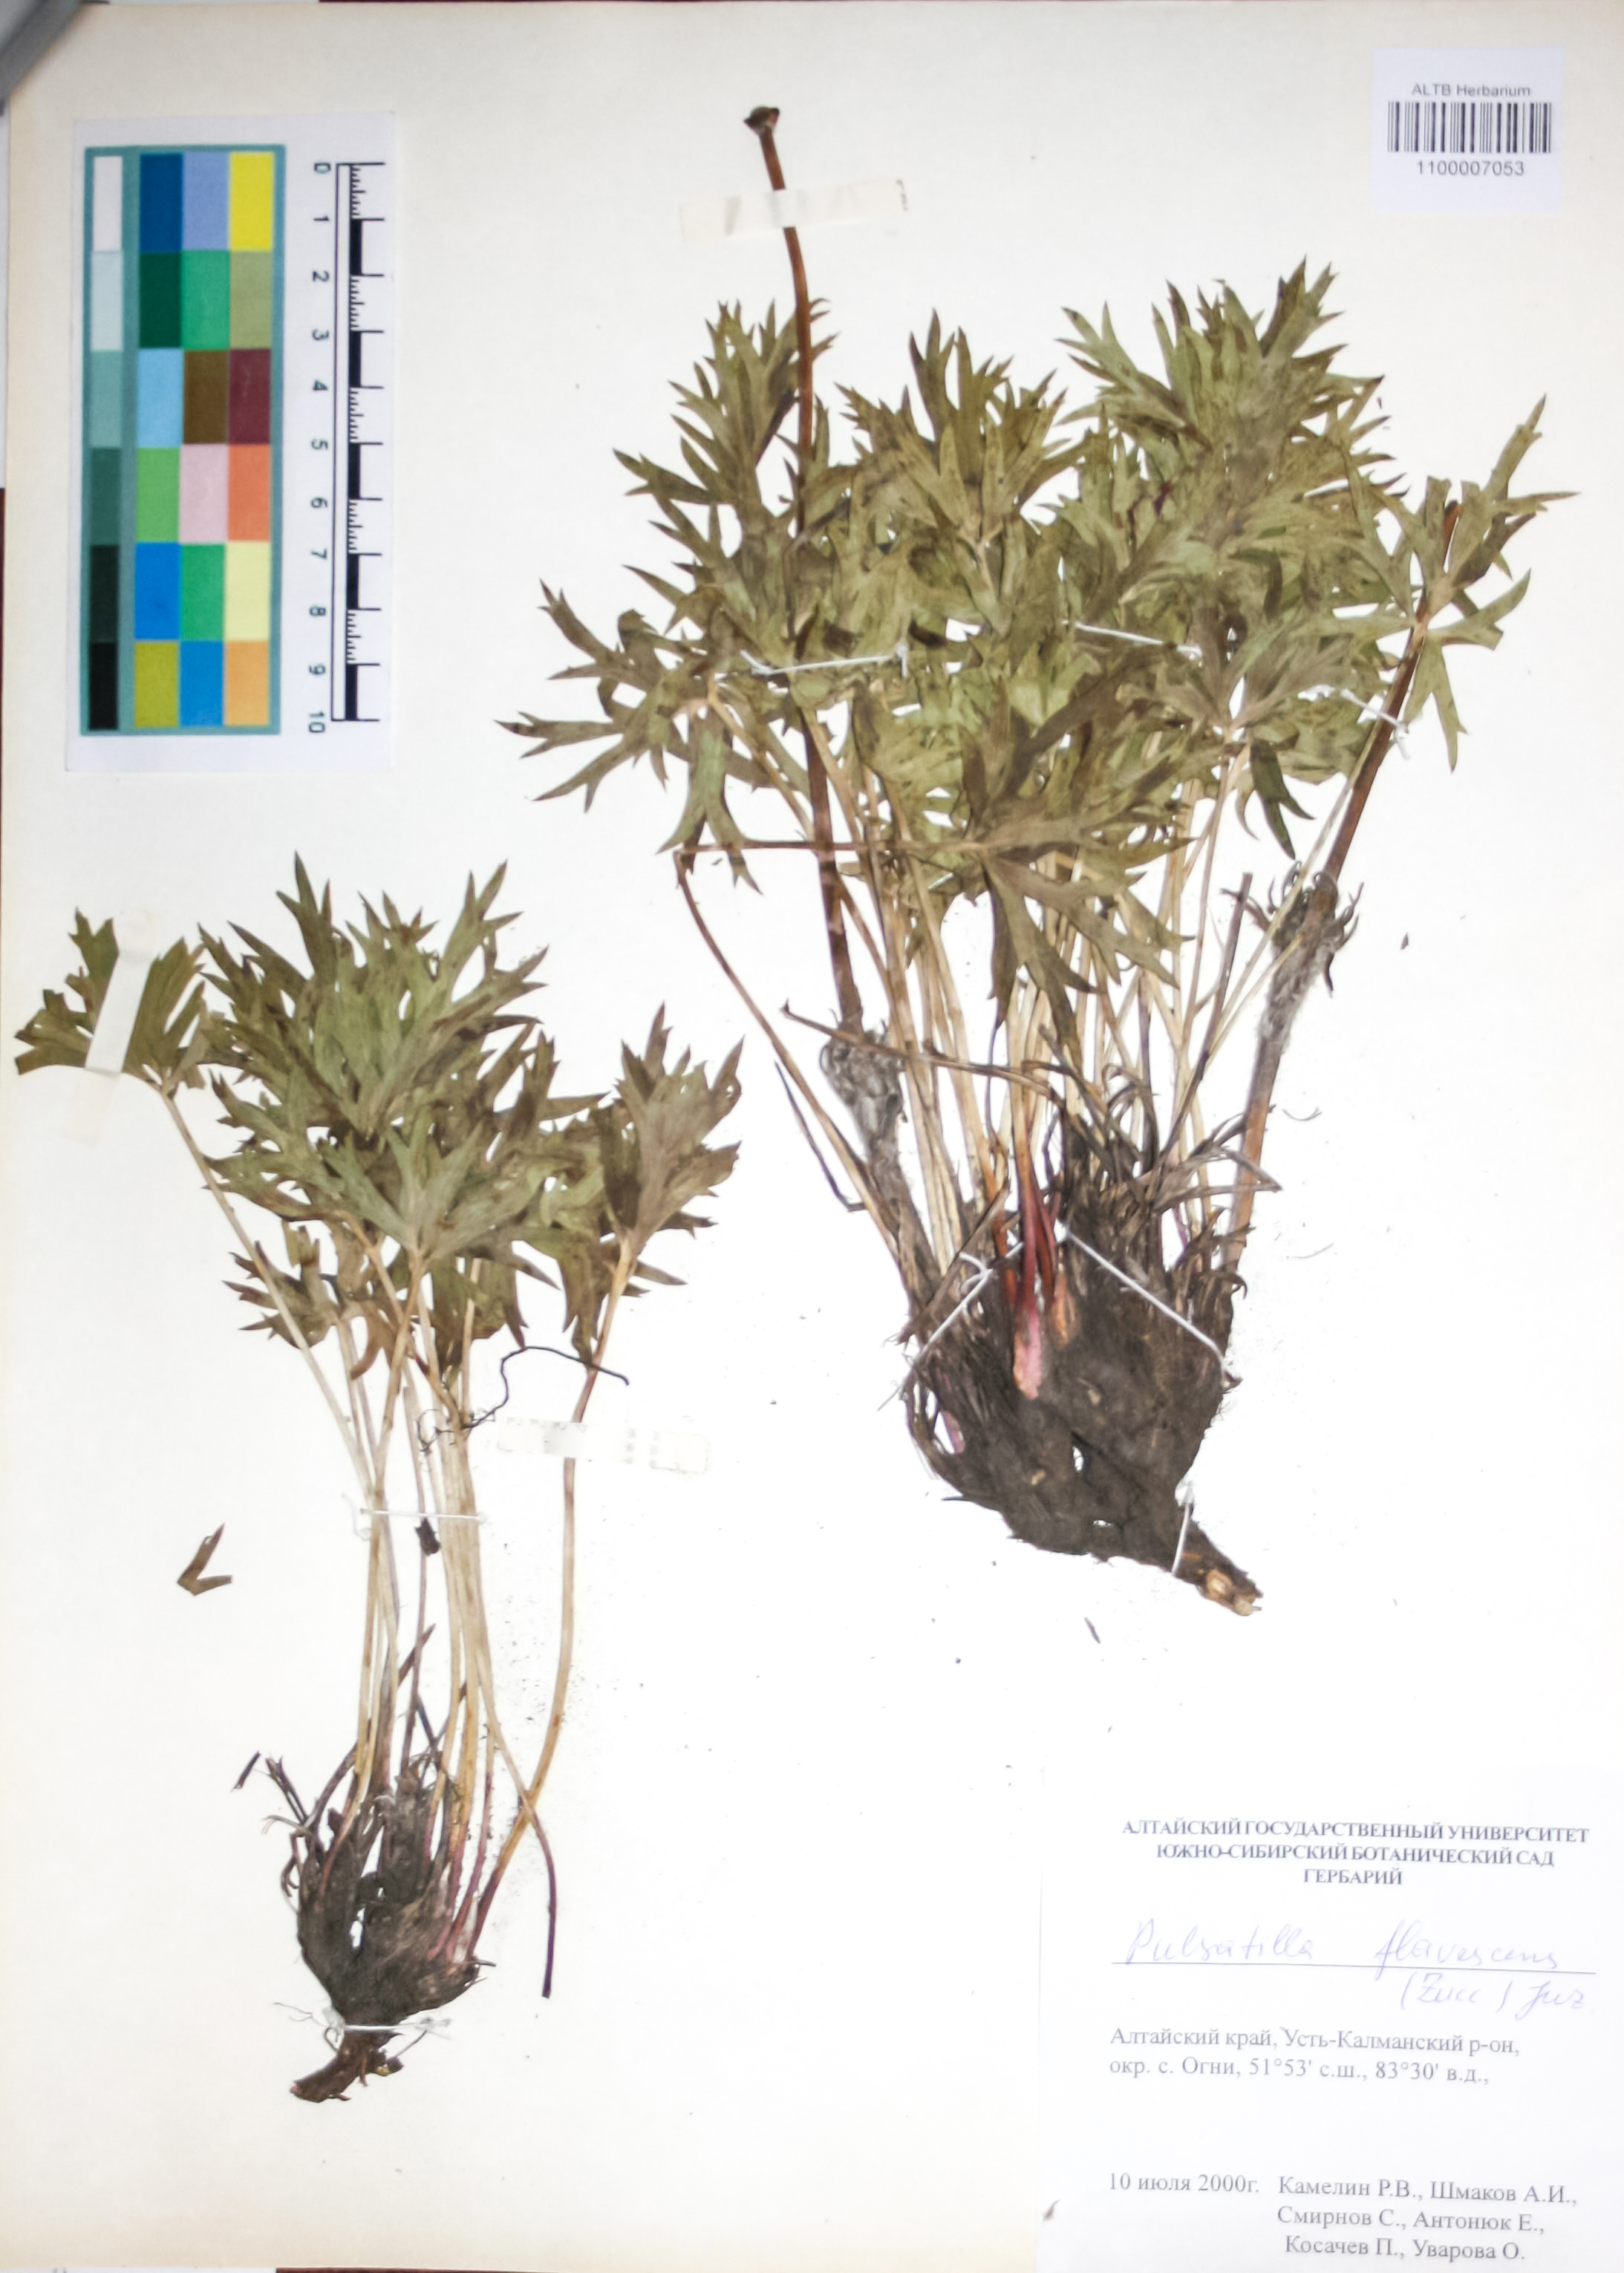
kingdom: Plantae
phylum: Tracheophyta
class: Magnoliopsida
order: Ranunculales
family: Ranunculaceae
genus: Pulsatilla
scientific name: Pulsatilla patens
